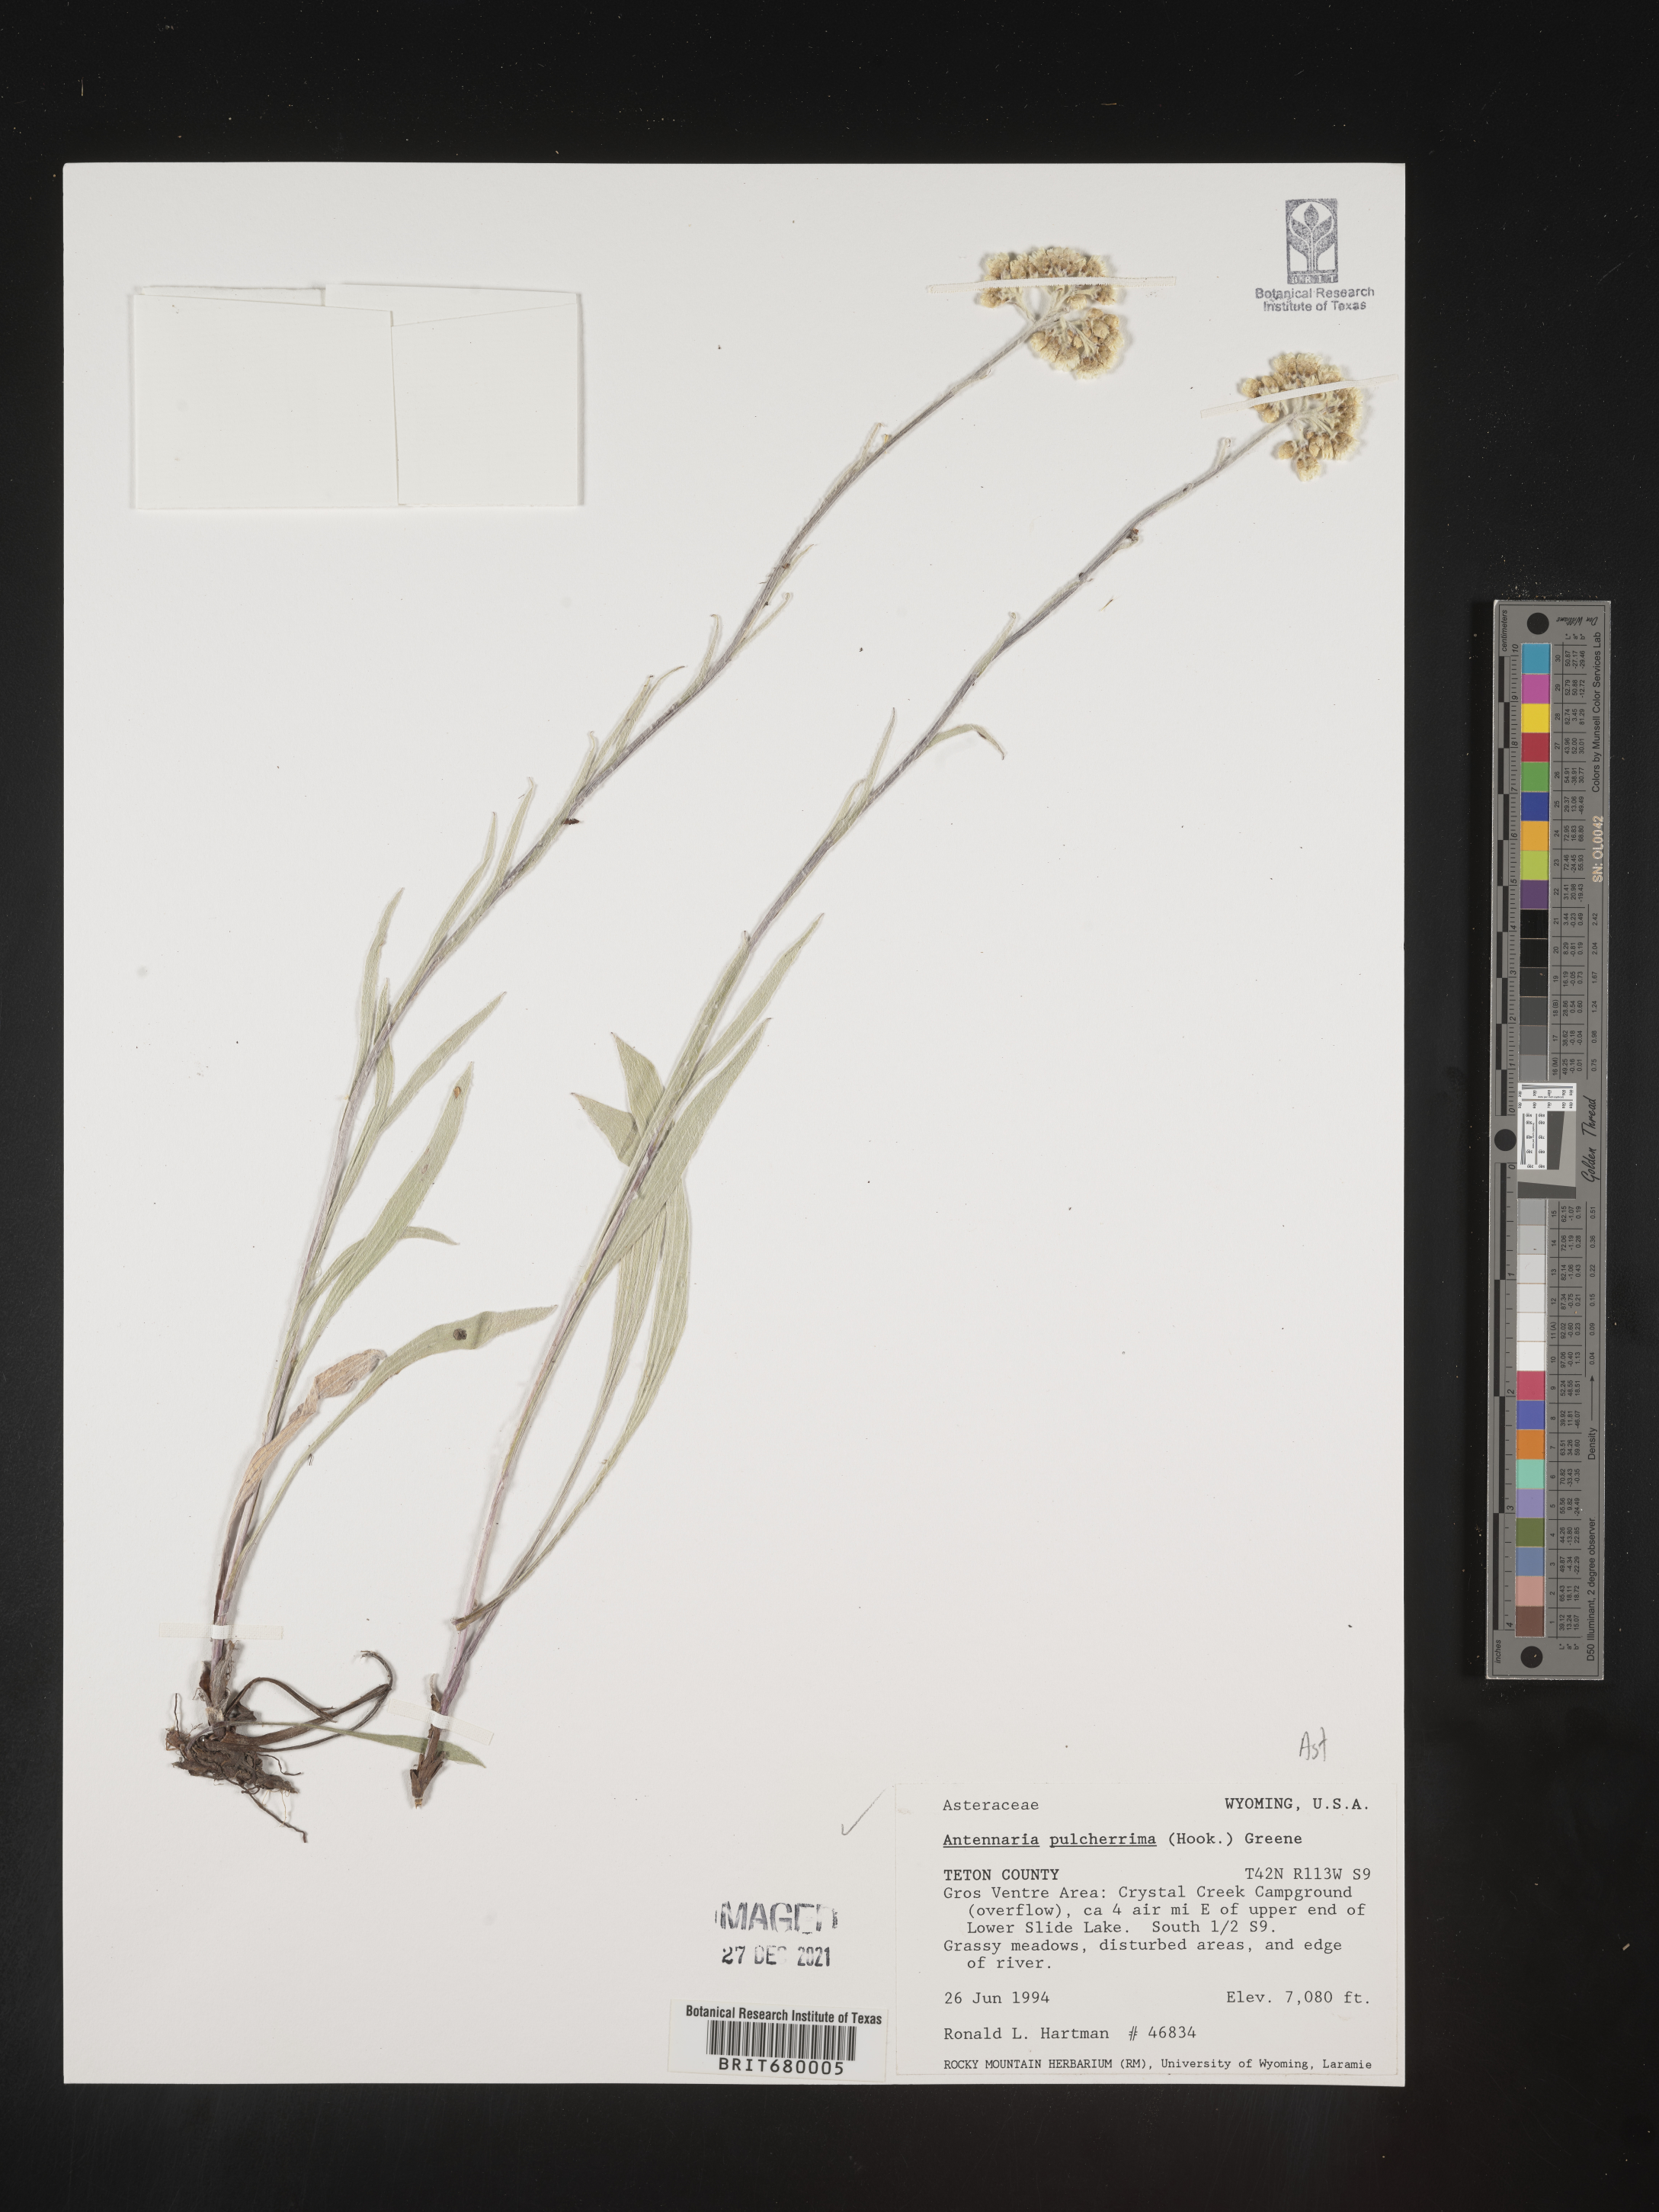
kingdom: Plantae
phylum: Tracheophyta
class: Magnoliopsida
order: Asterales
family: Asteraceae
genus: Antennaria
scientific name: Antennaria pulcherrima
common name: Handsome pussytoes
